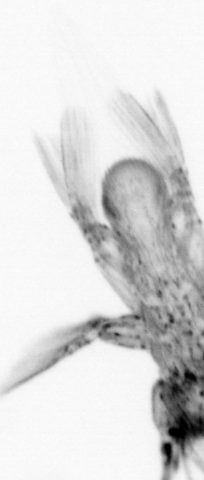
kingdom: Animalia
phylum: Arthropoda
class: Copepoda
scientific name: Copepoda
